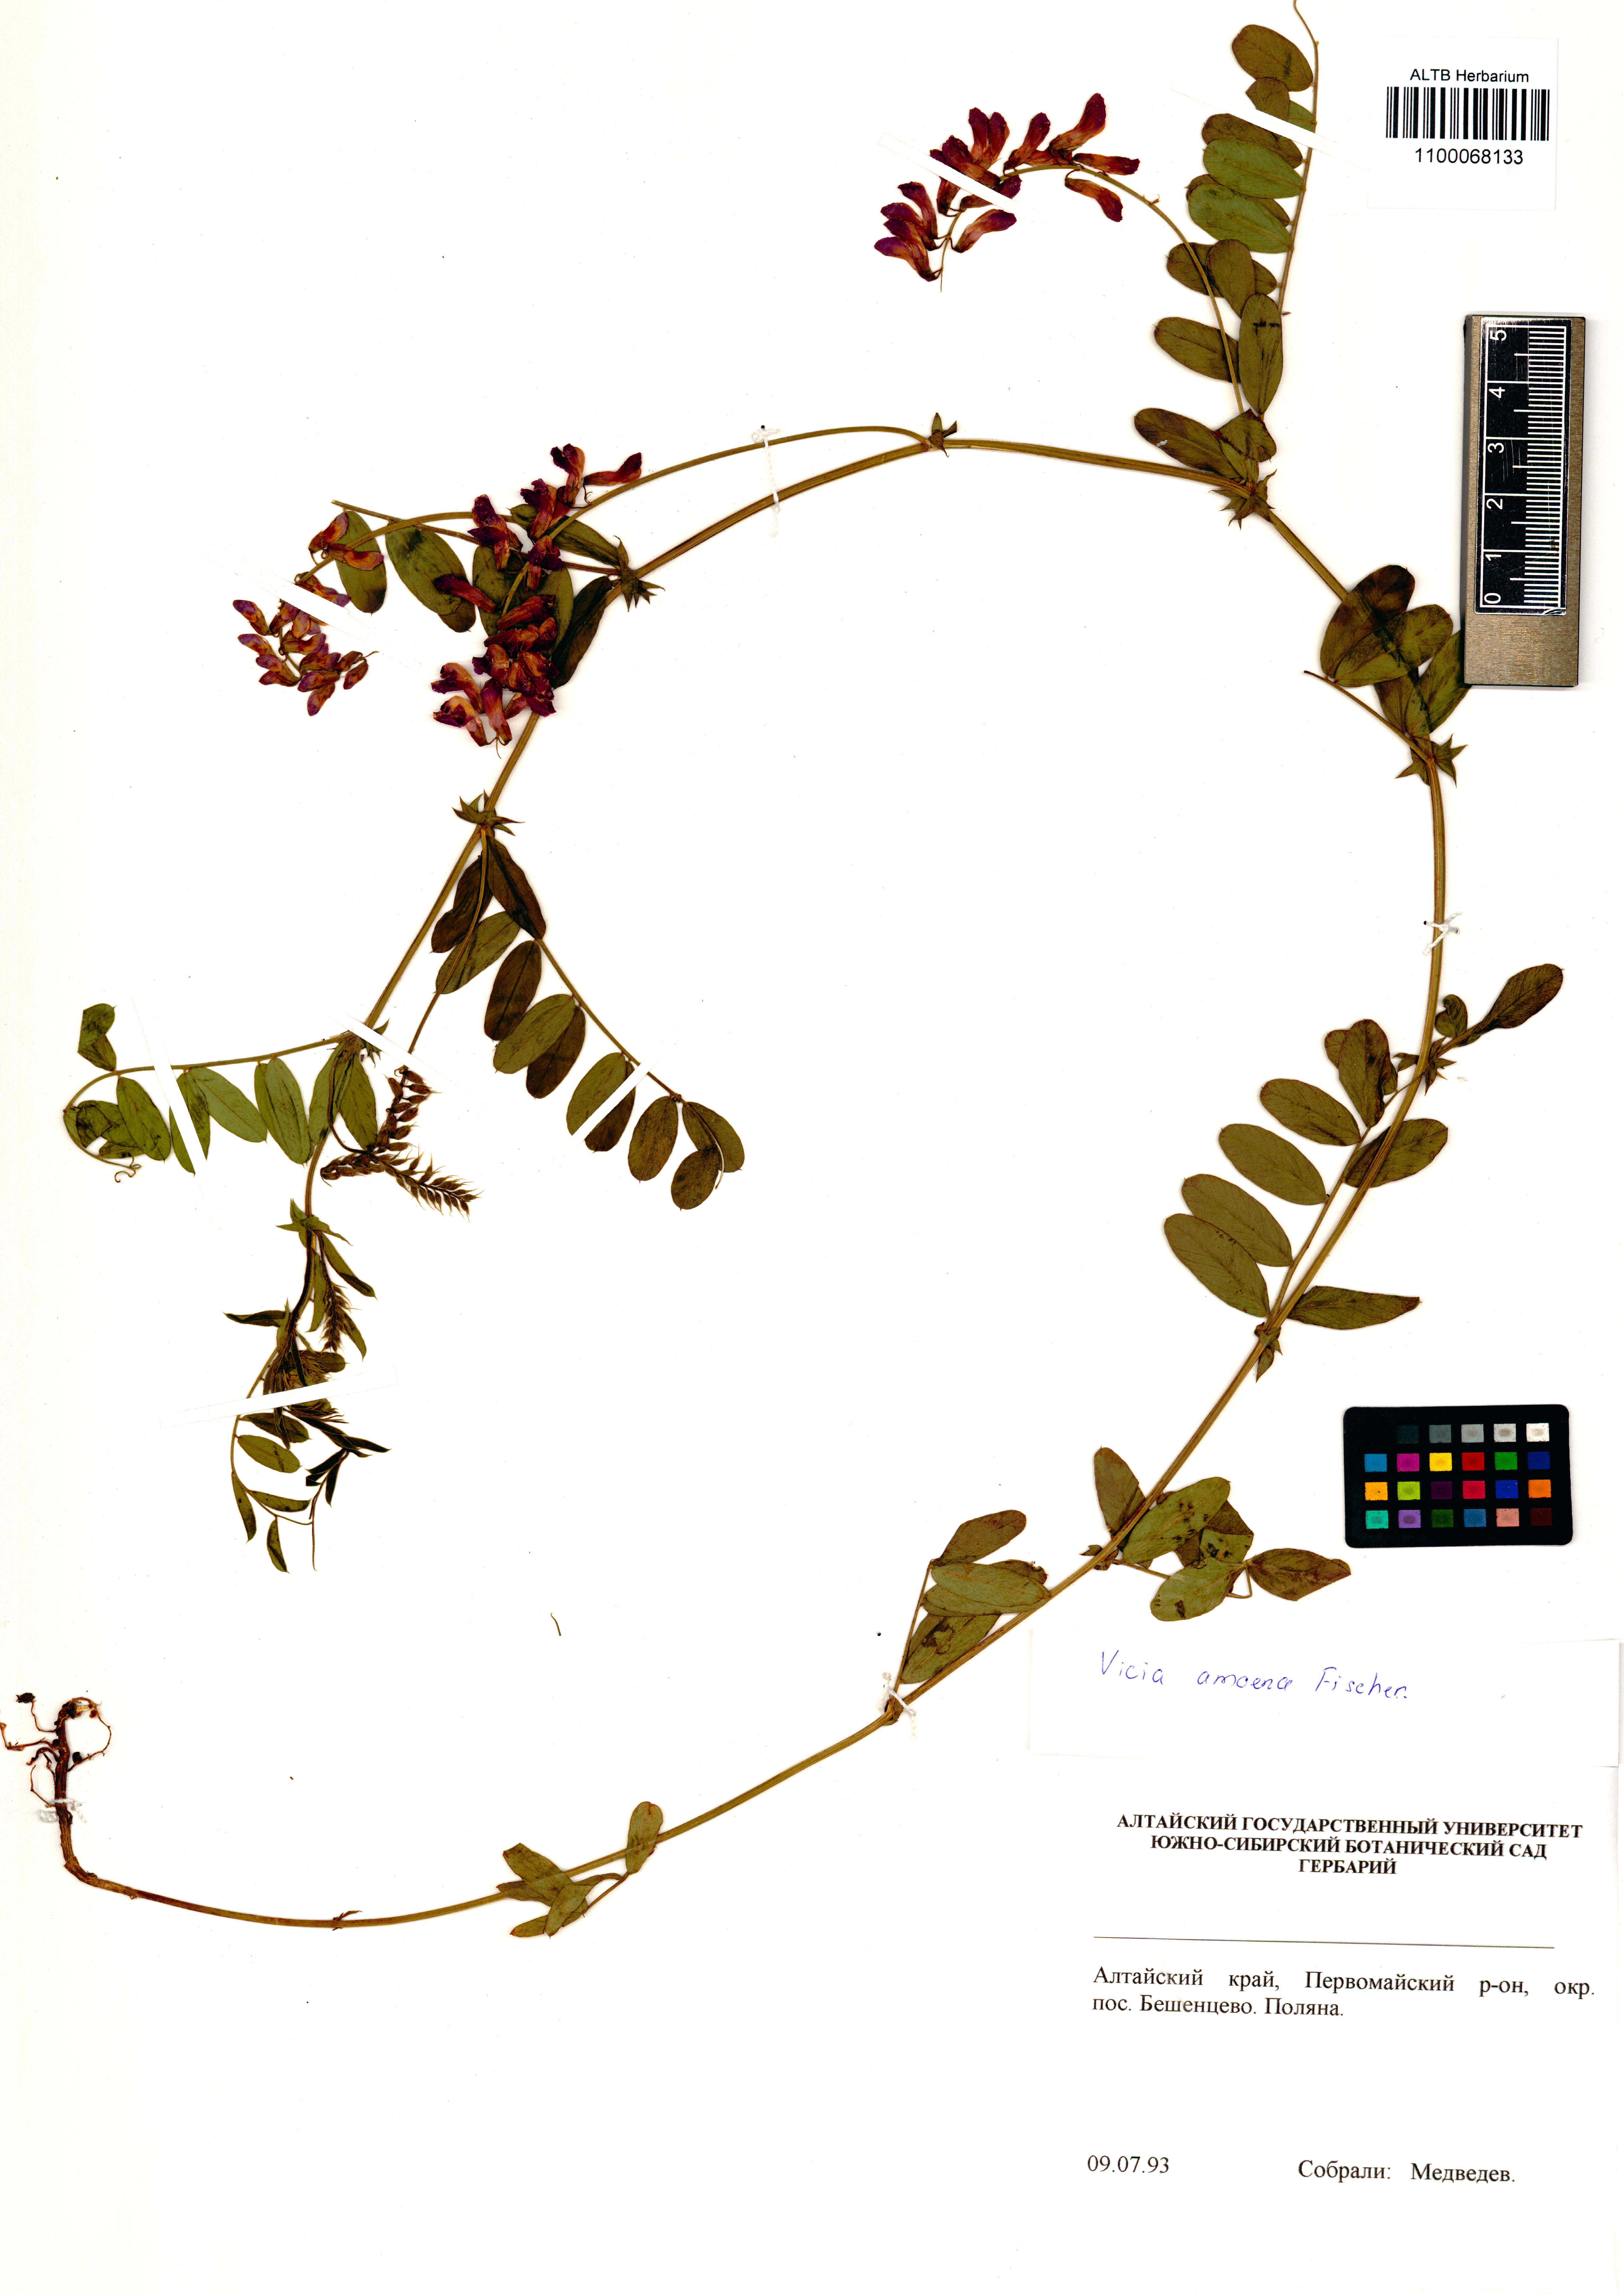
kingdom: Plantae
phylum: Tracheophyta
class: Magnoliopsida
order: Fabales
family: Fabaceae
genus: Vicia
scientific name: Vicia amoena
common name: Cheder ebs
